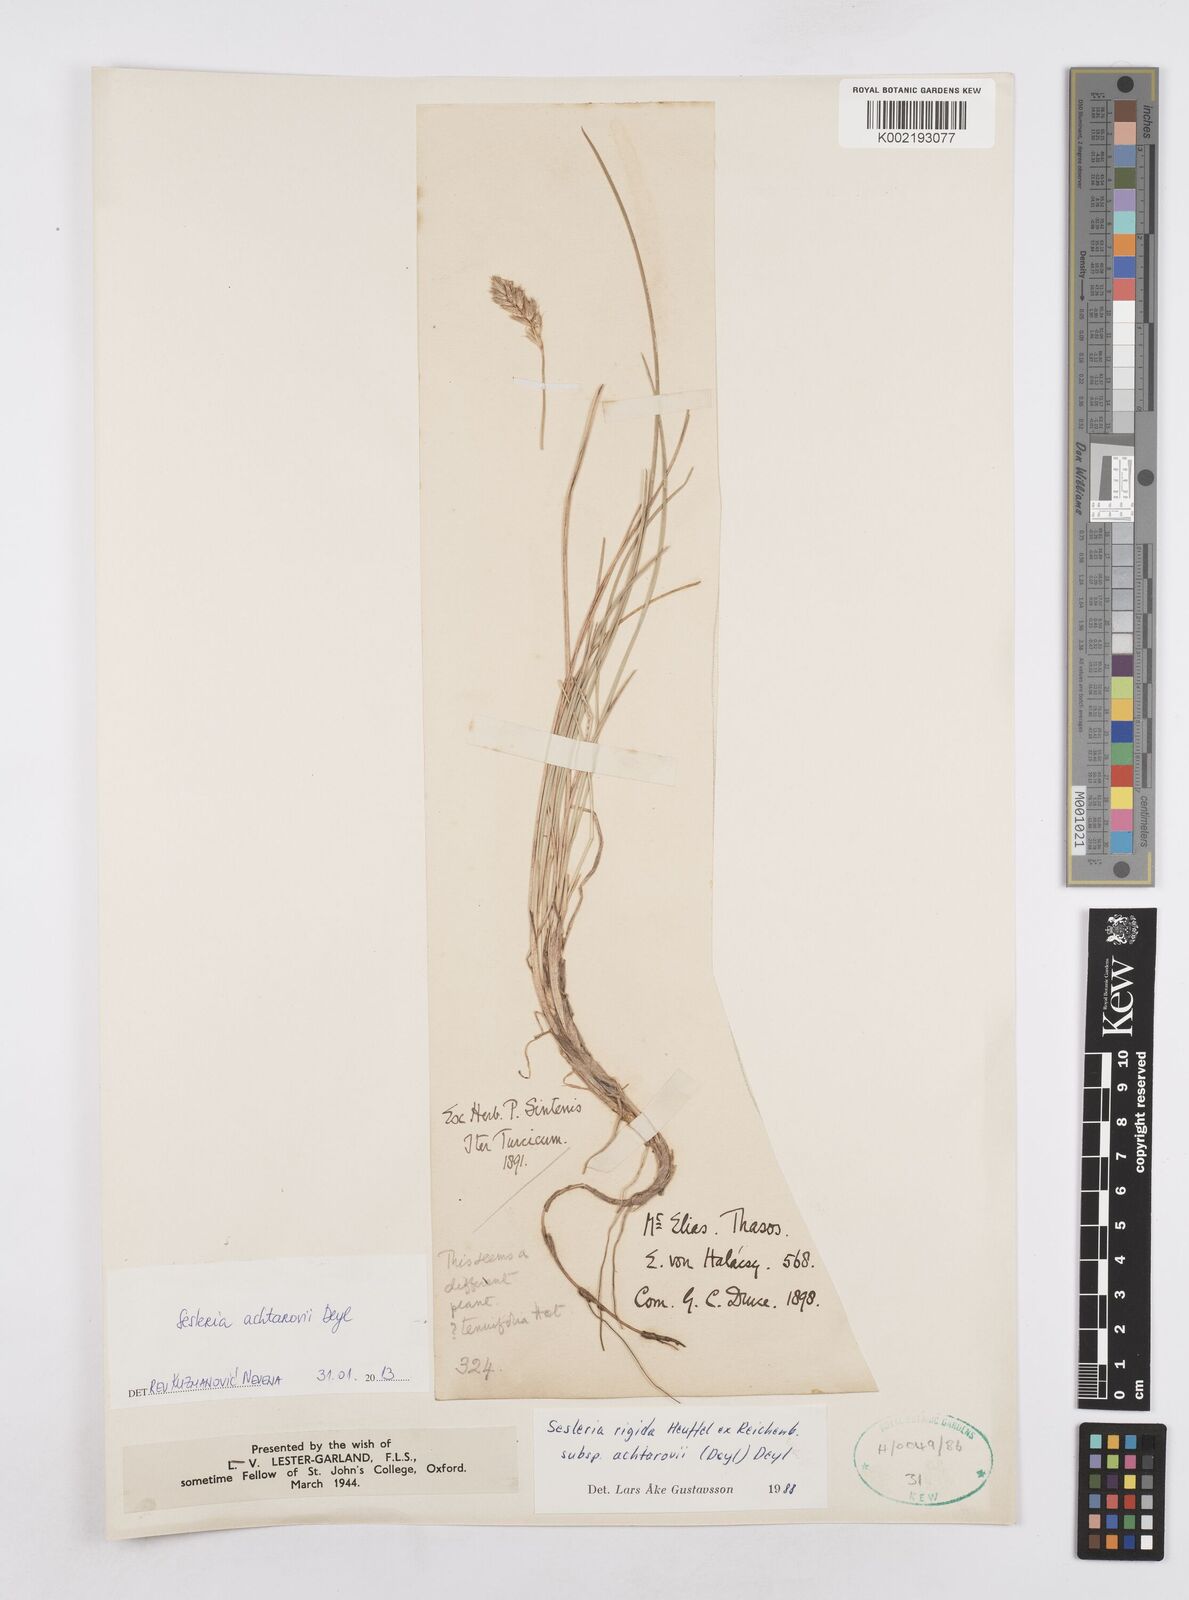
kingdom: Plantae
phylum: Tracheophyta
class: Liliopsida
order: Poales
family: Poaceae
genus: Sesleria
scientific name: Sesleria achtarovii
